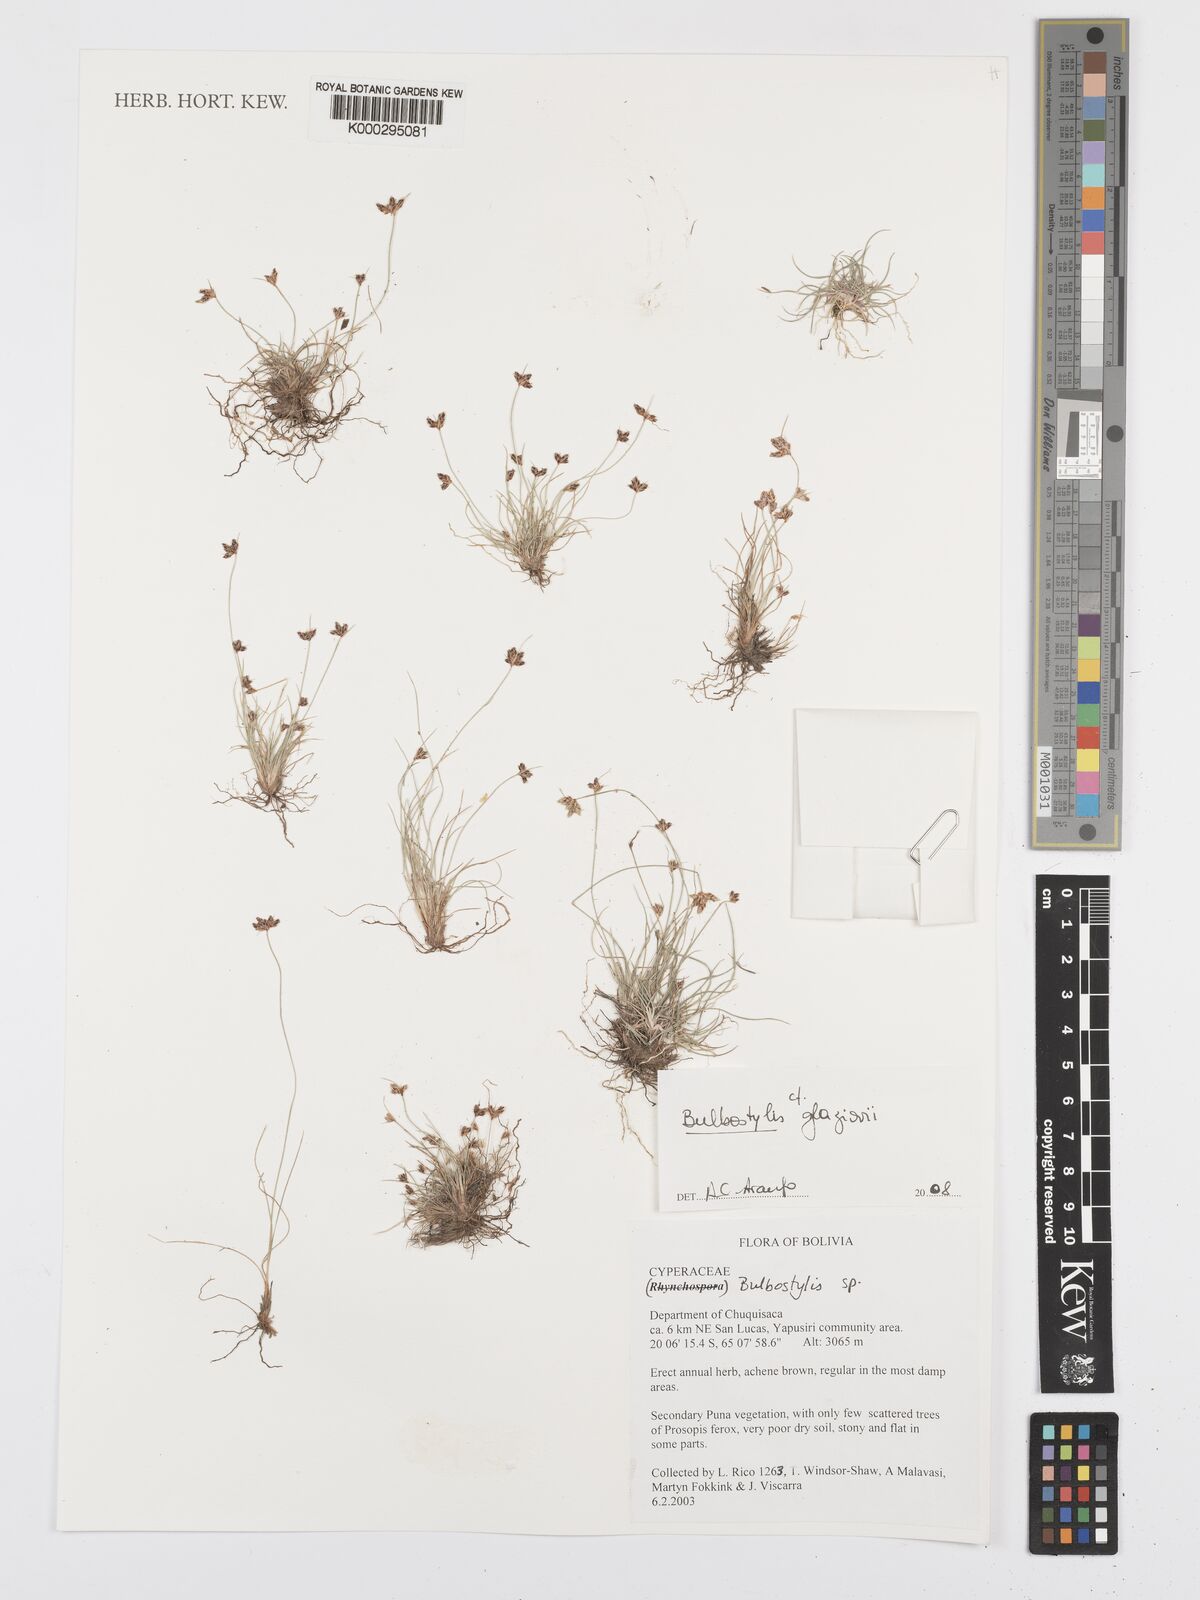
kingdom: Plantae
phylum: Tracheophyta
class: Liliopsida
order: Poales
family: Cyperaceae
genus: Bulbostylis
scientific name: Bulbostylis
